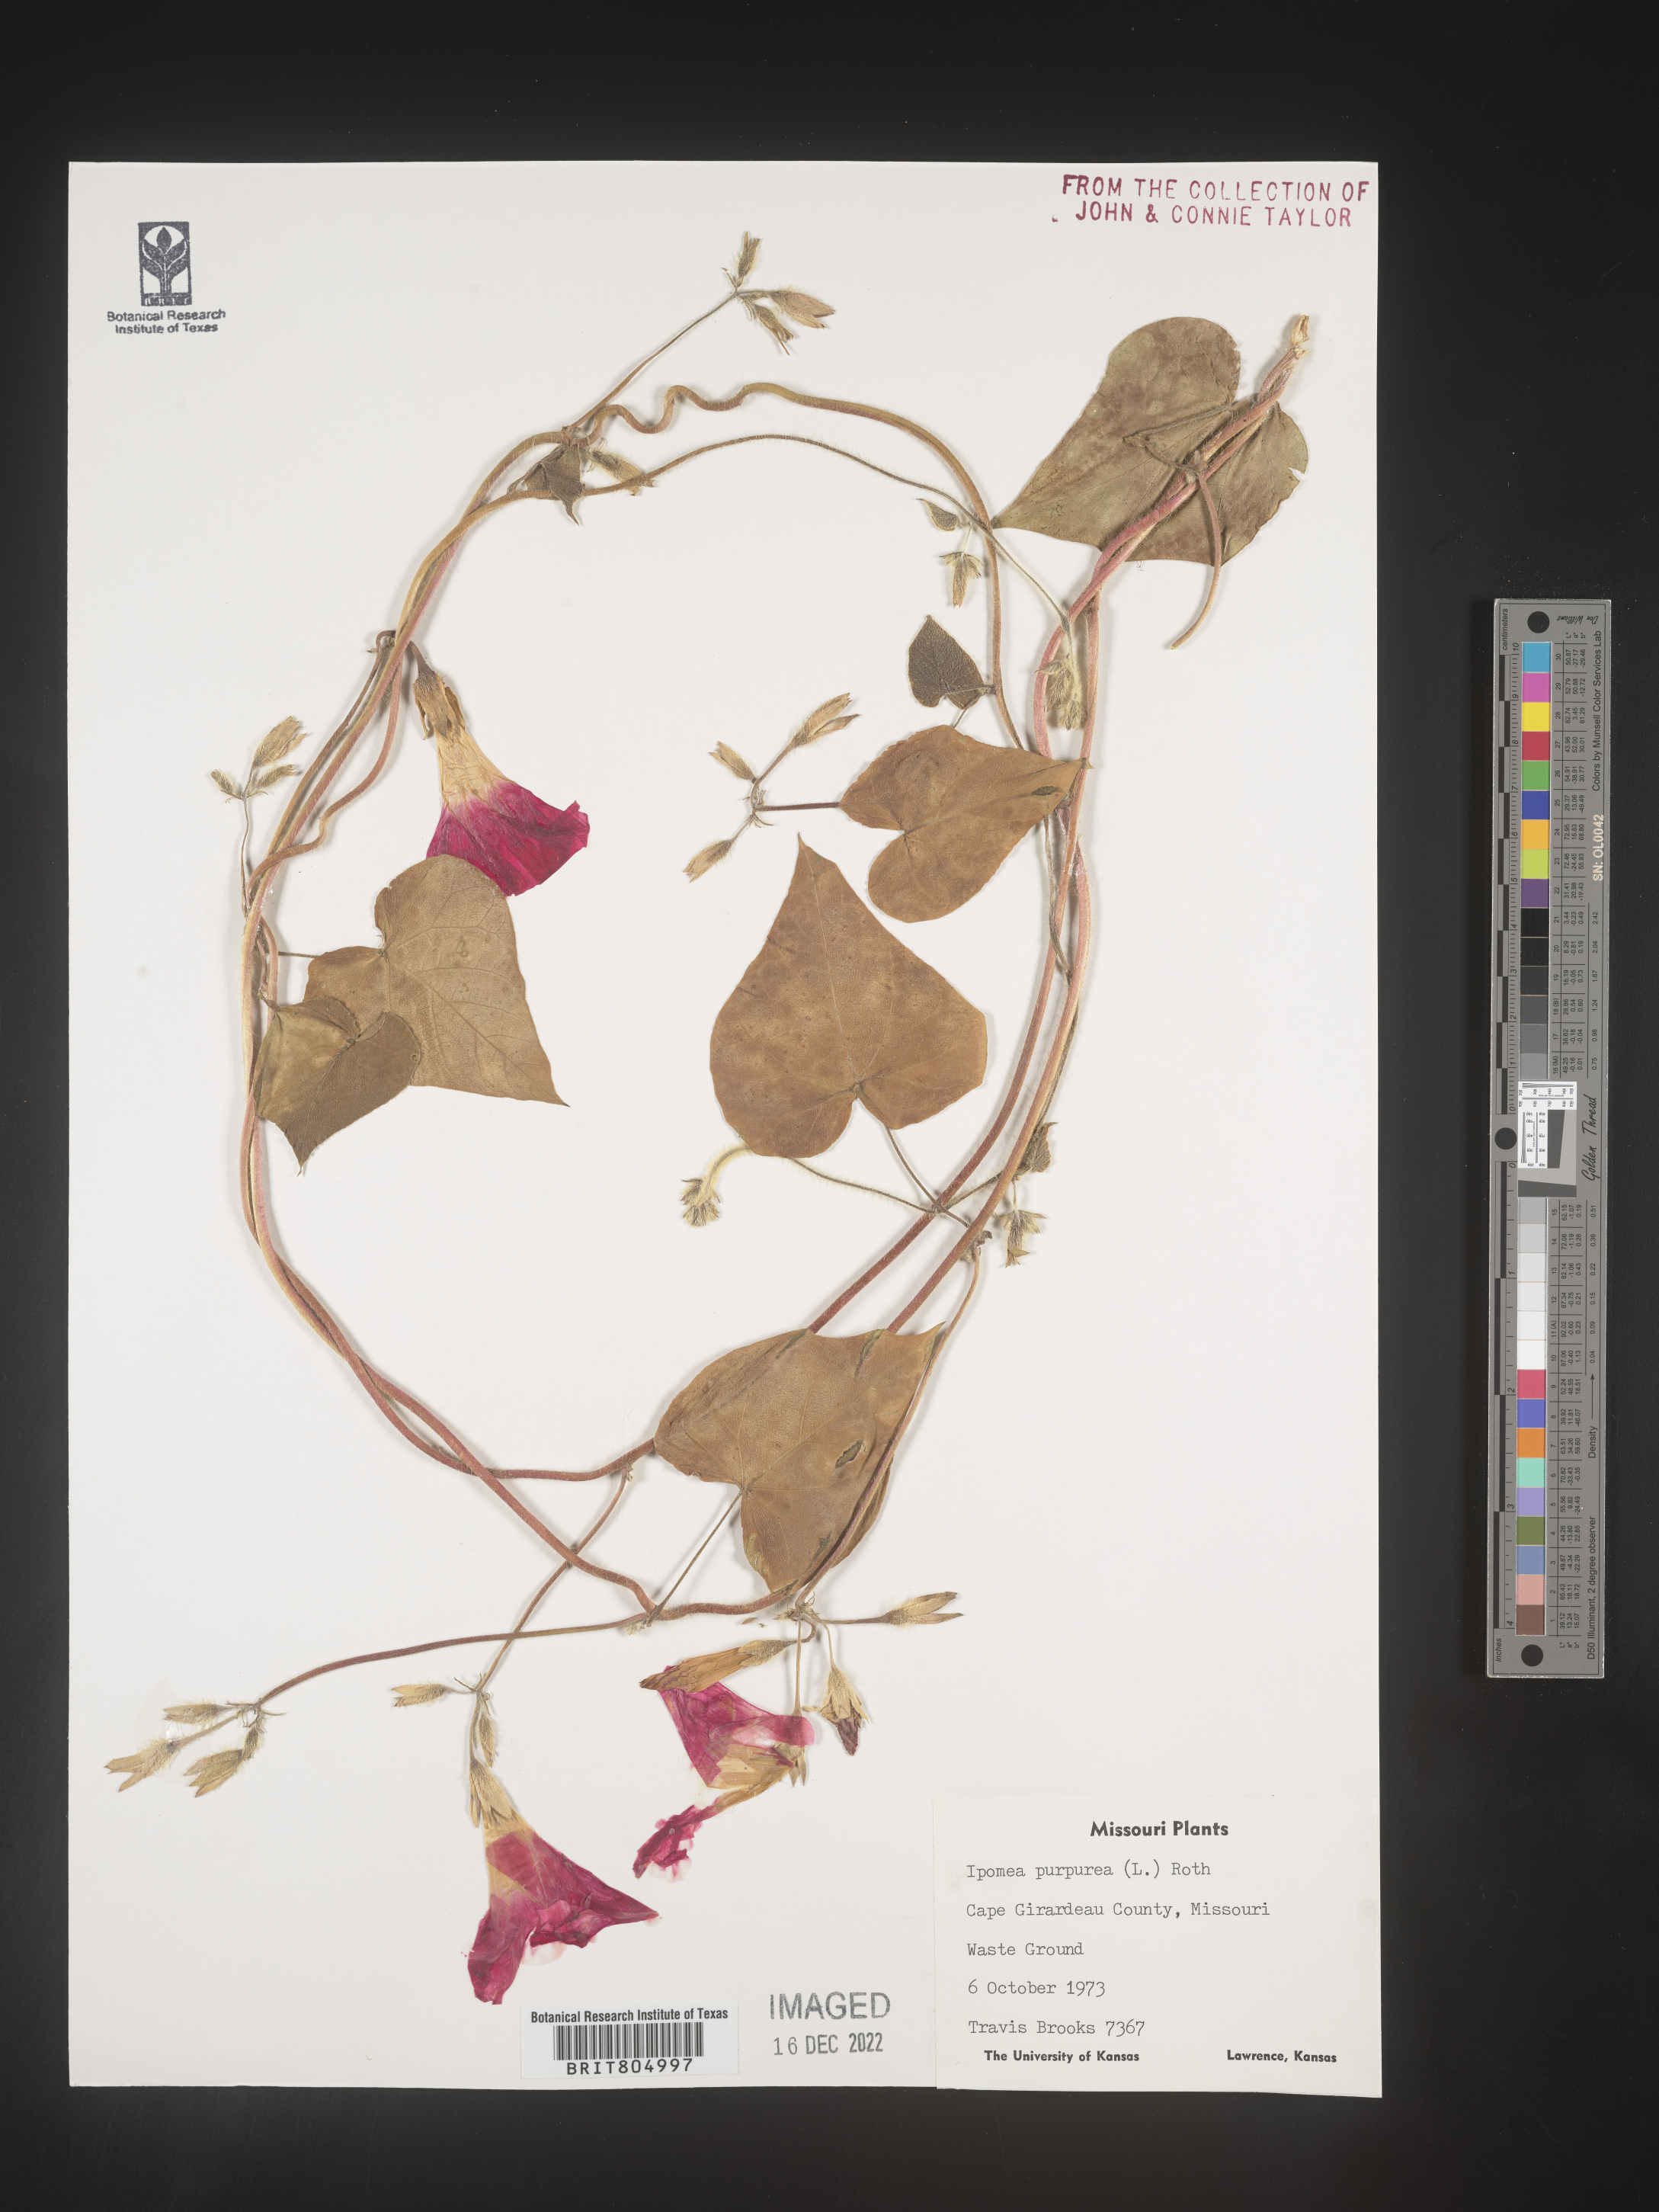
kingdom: Plantae
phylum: Tracheophyta
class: Magnoliopsida
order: Solanales
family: Convolvulaceae
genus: Ipomoea
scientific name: Ipomoea purpurea
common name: Common morning-glory
